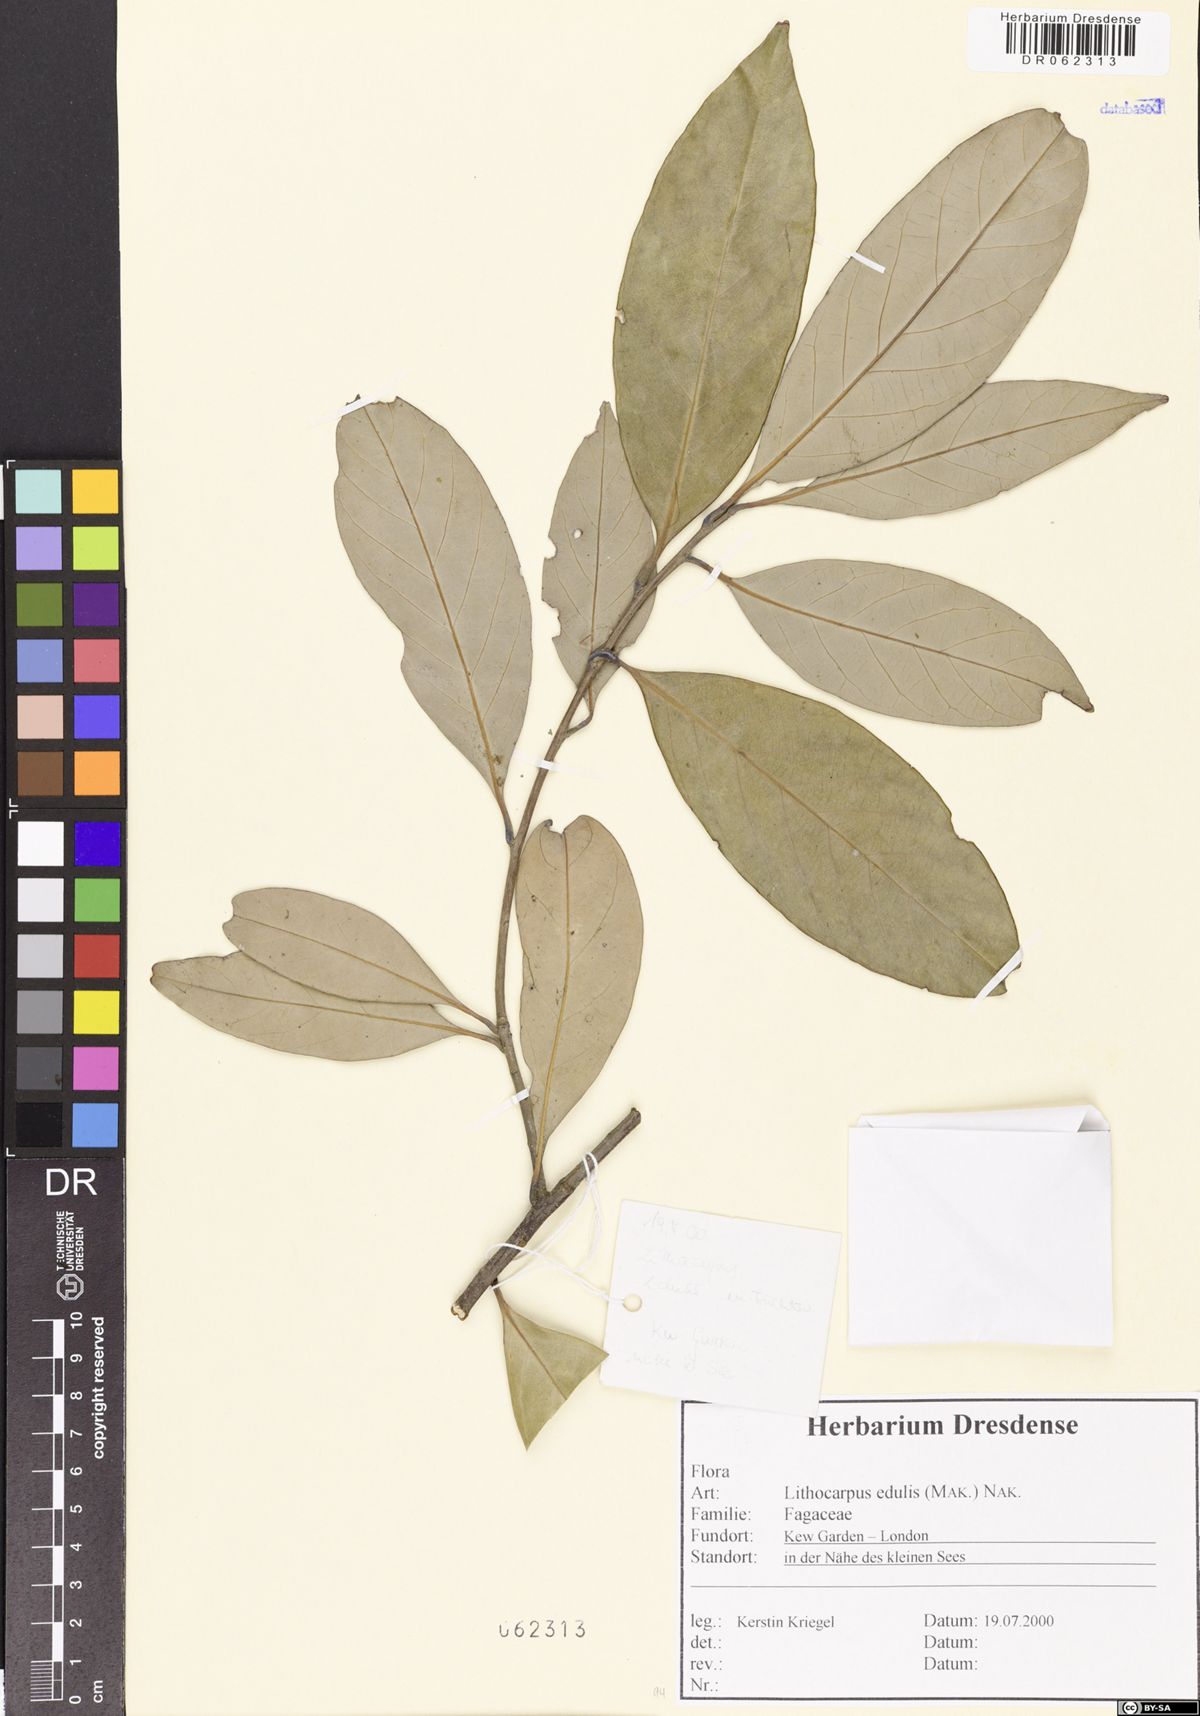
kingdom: Plantae
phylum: Tracheophyta
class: Magnoliopsida
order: Fagales
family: Fagaceae
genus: Lithocarpus
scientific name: Lithocarpus edulis
